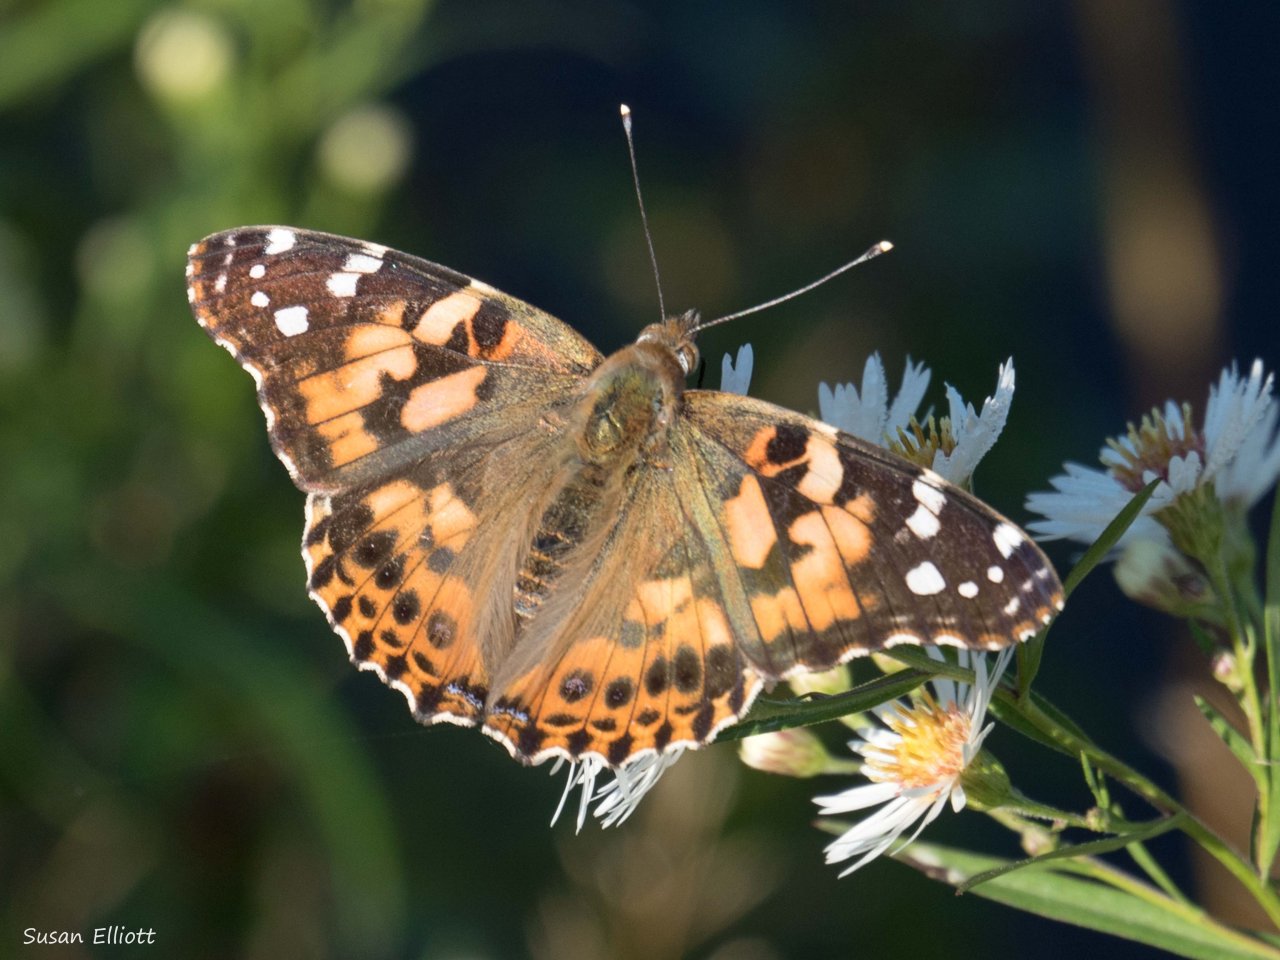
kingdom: Animalia
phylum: Arthropoda
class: Insecta
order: Lepidoptera
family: Nymphalidae
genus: Vanessa
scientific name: Vanessa cardui
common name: Painted Lady
